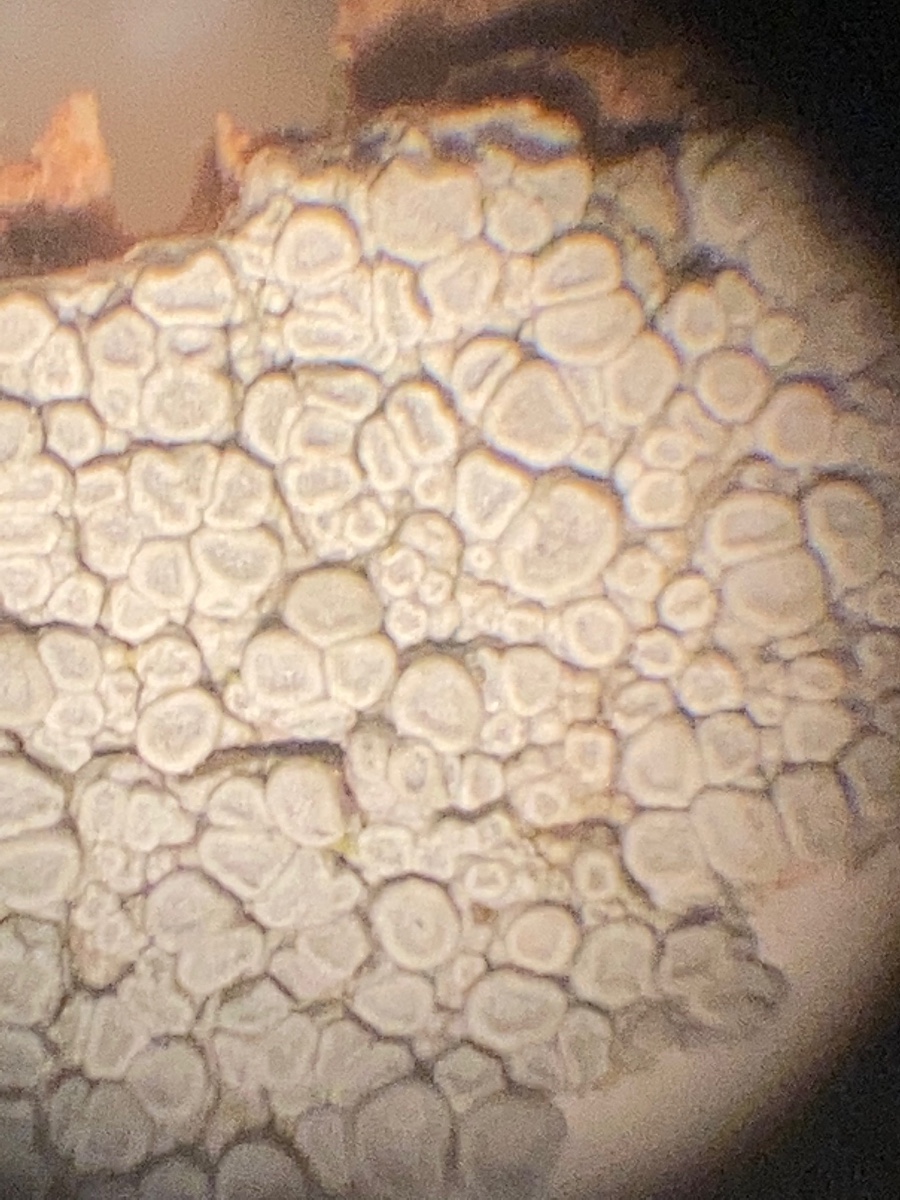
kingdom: Fungi
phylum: Ascomycota
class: Lecanoromycetes
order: Lecanorales
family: Lecanoraceae
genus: Glaucomaria
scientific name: Glaucomaria carpinea
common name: hviddugget kantskivelav
